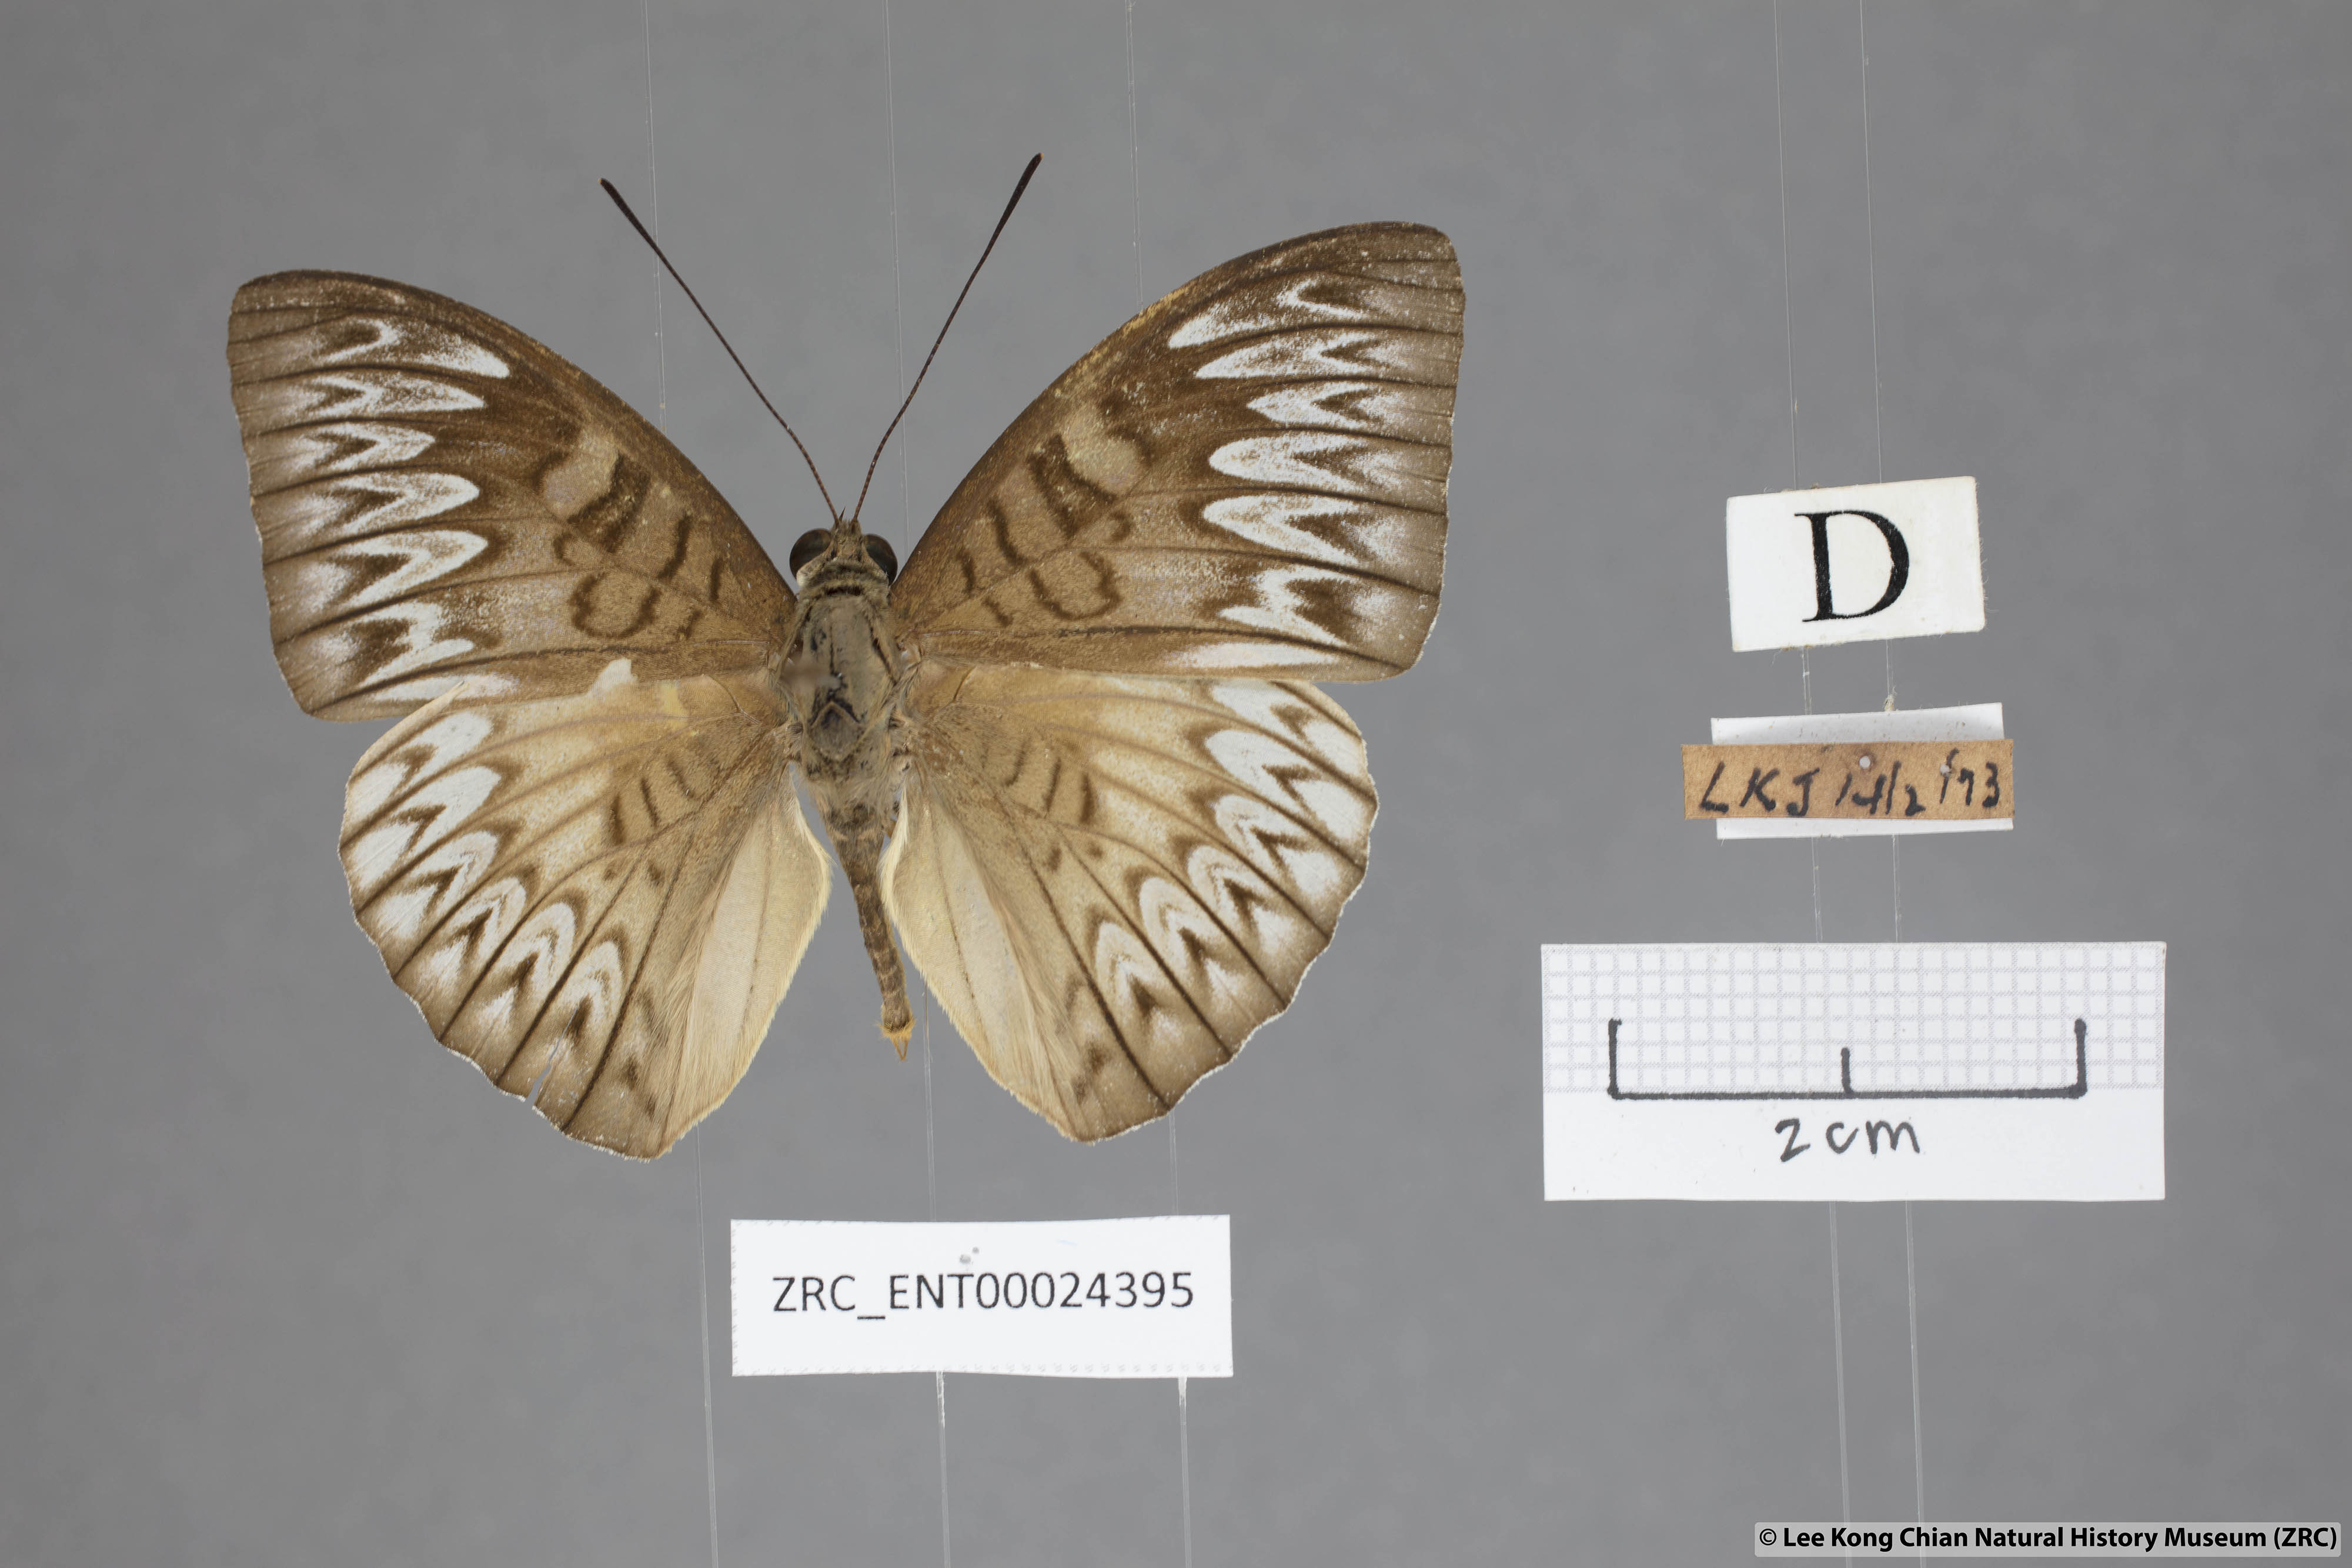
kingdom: Animalia
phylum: Arthropoda
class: Insecta
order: Lepidoptera
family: Nymphalidae
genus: Tanaecia
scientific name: Tanaecia munda
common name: Peninsular viscount
